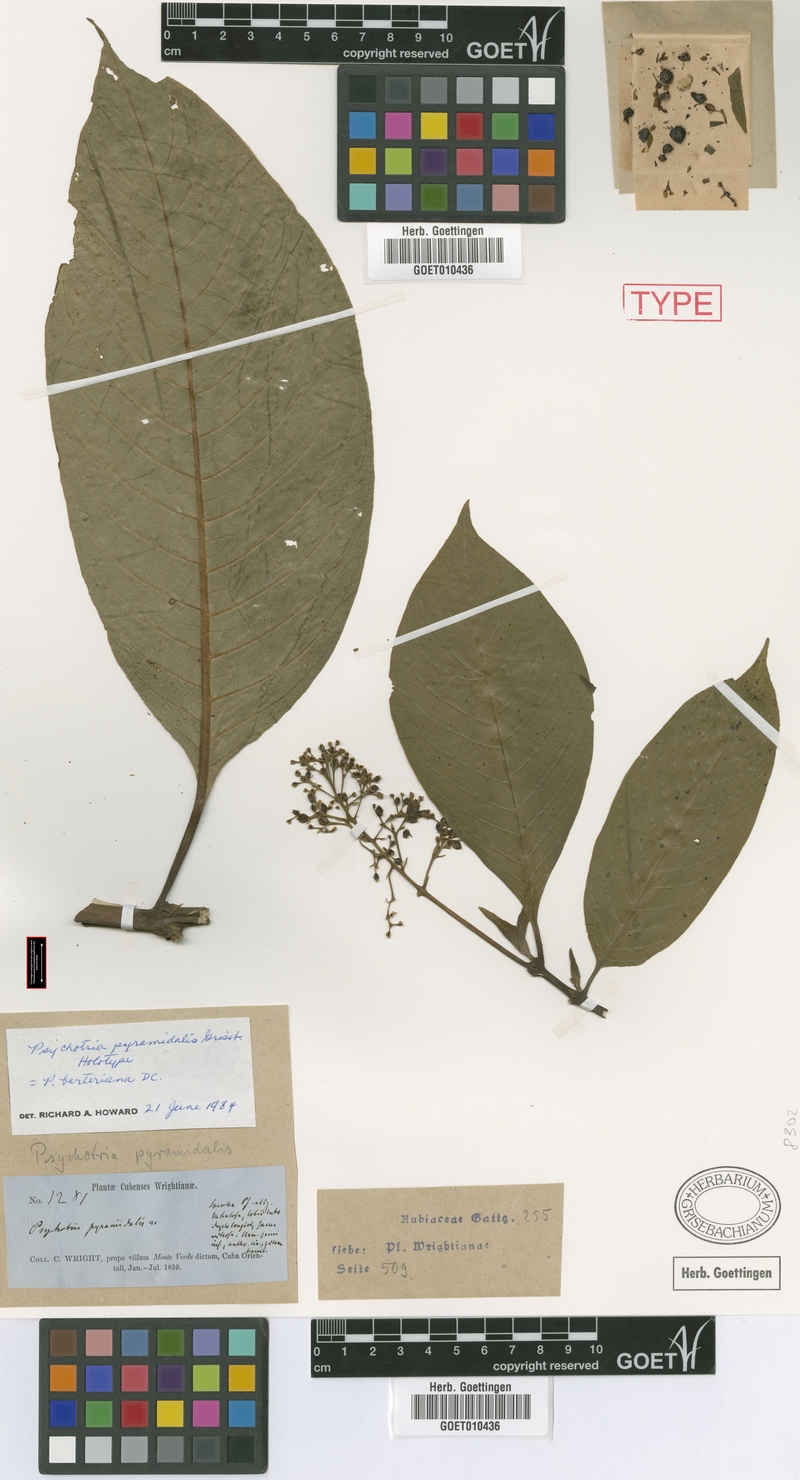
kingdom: Plantae
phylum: Tracheophyta
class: Magnoliopsida
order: Gentianales
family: Rubiaceae
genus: Palicourea
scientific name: Palicourea berteroana
